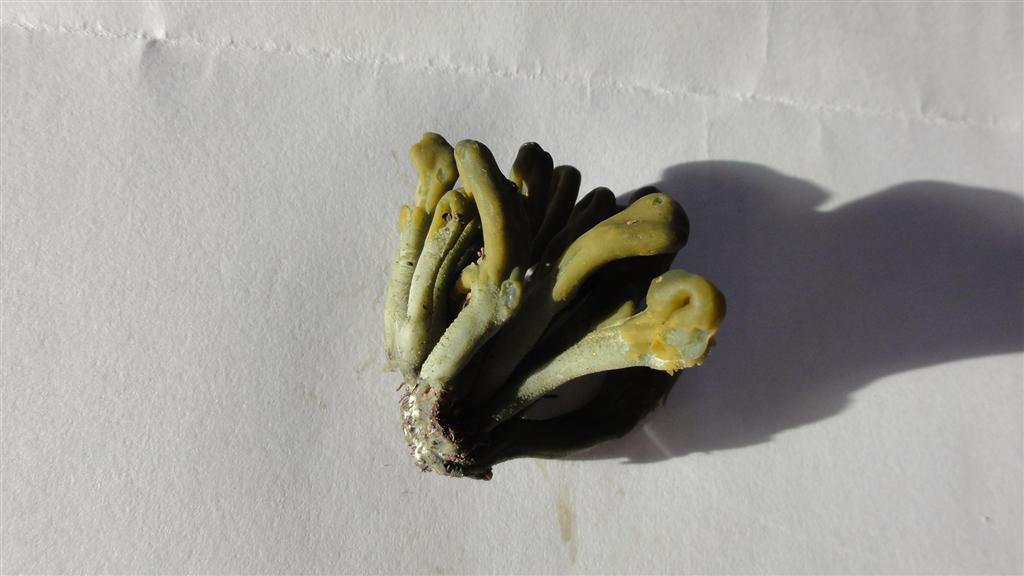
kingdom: Fungi
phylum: Ascomycota
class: Leotiomycetes
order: Leotiales
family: Leotiaceae
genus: Microglossum
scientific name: Microglossum griseoviride
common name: grågrøn farvetunge
